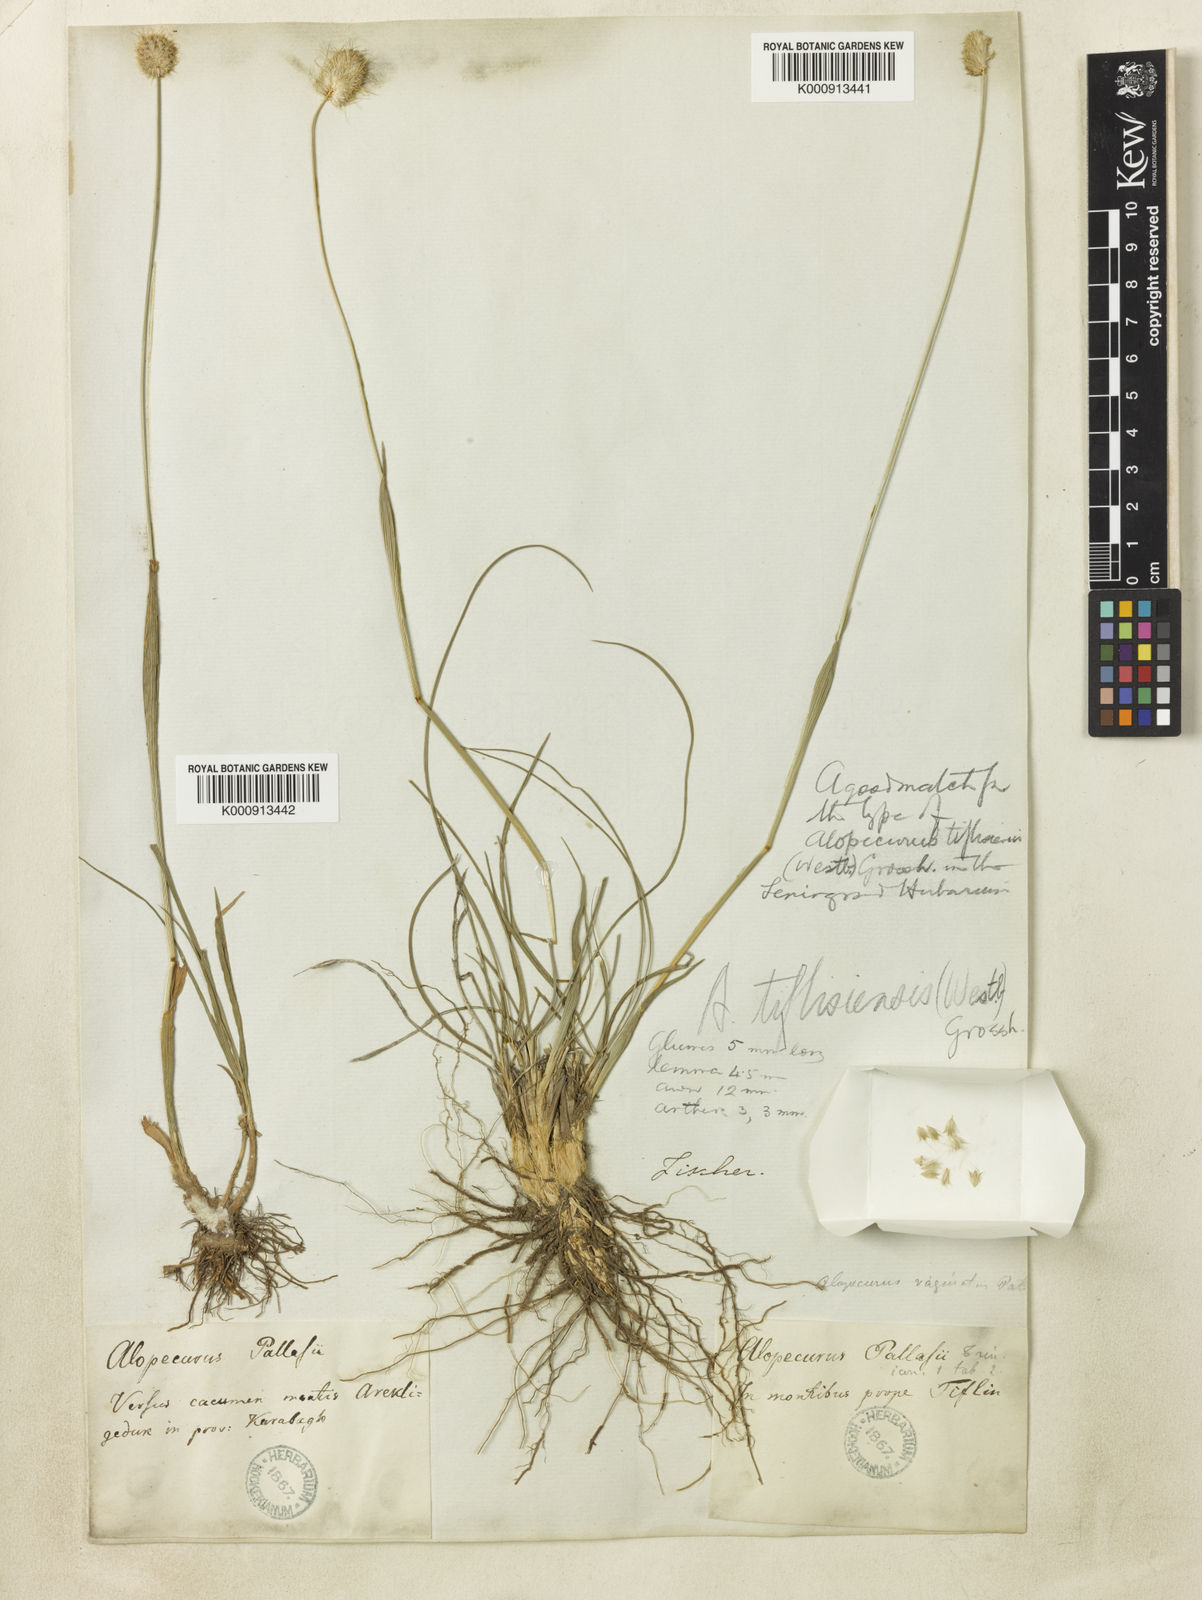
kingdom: Plantae
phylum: Tracheophyta
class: Liliopsida
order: Poales
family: Poaceae
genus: Alopecurus
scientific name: Alopecurus textilis
